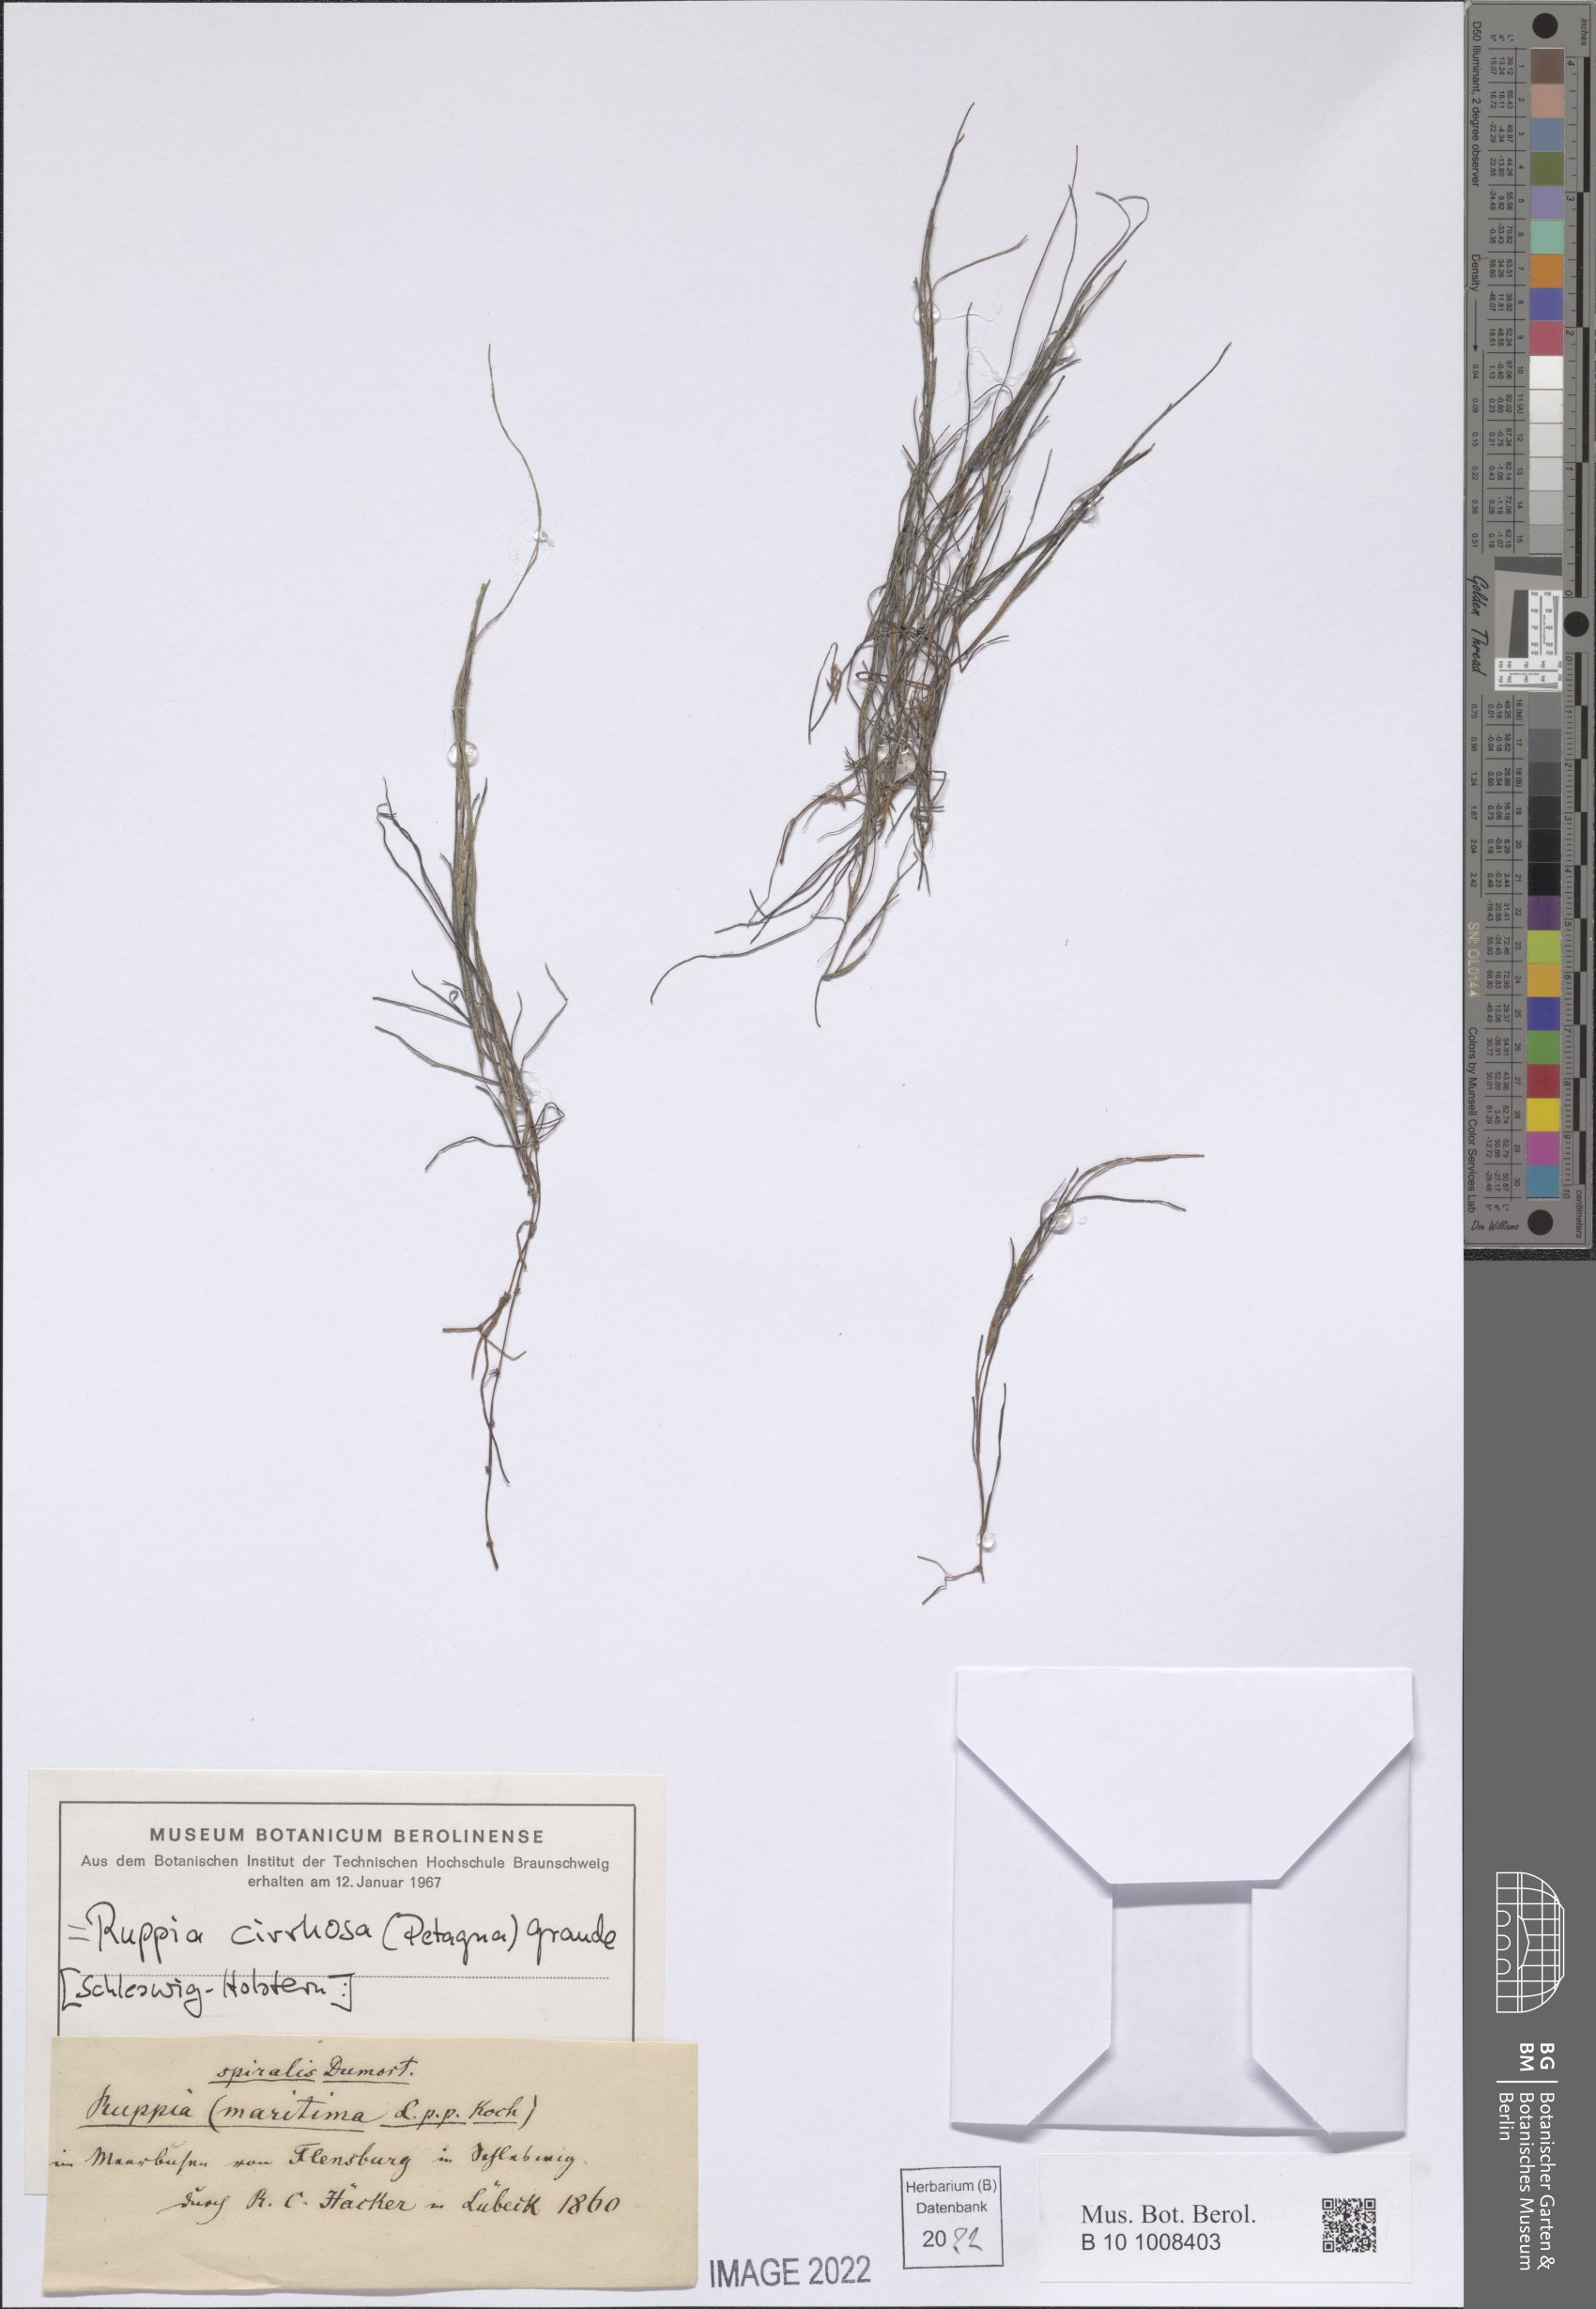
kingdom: Plantae
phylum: Tracheophyta
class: Liliopsida
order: Alismatales
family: Ruppiaceae
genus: Ruppia
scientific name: Ruppia cirrhosa
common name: Spiral tasselweed
